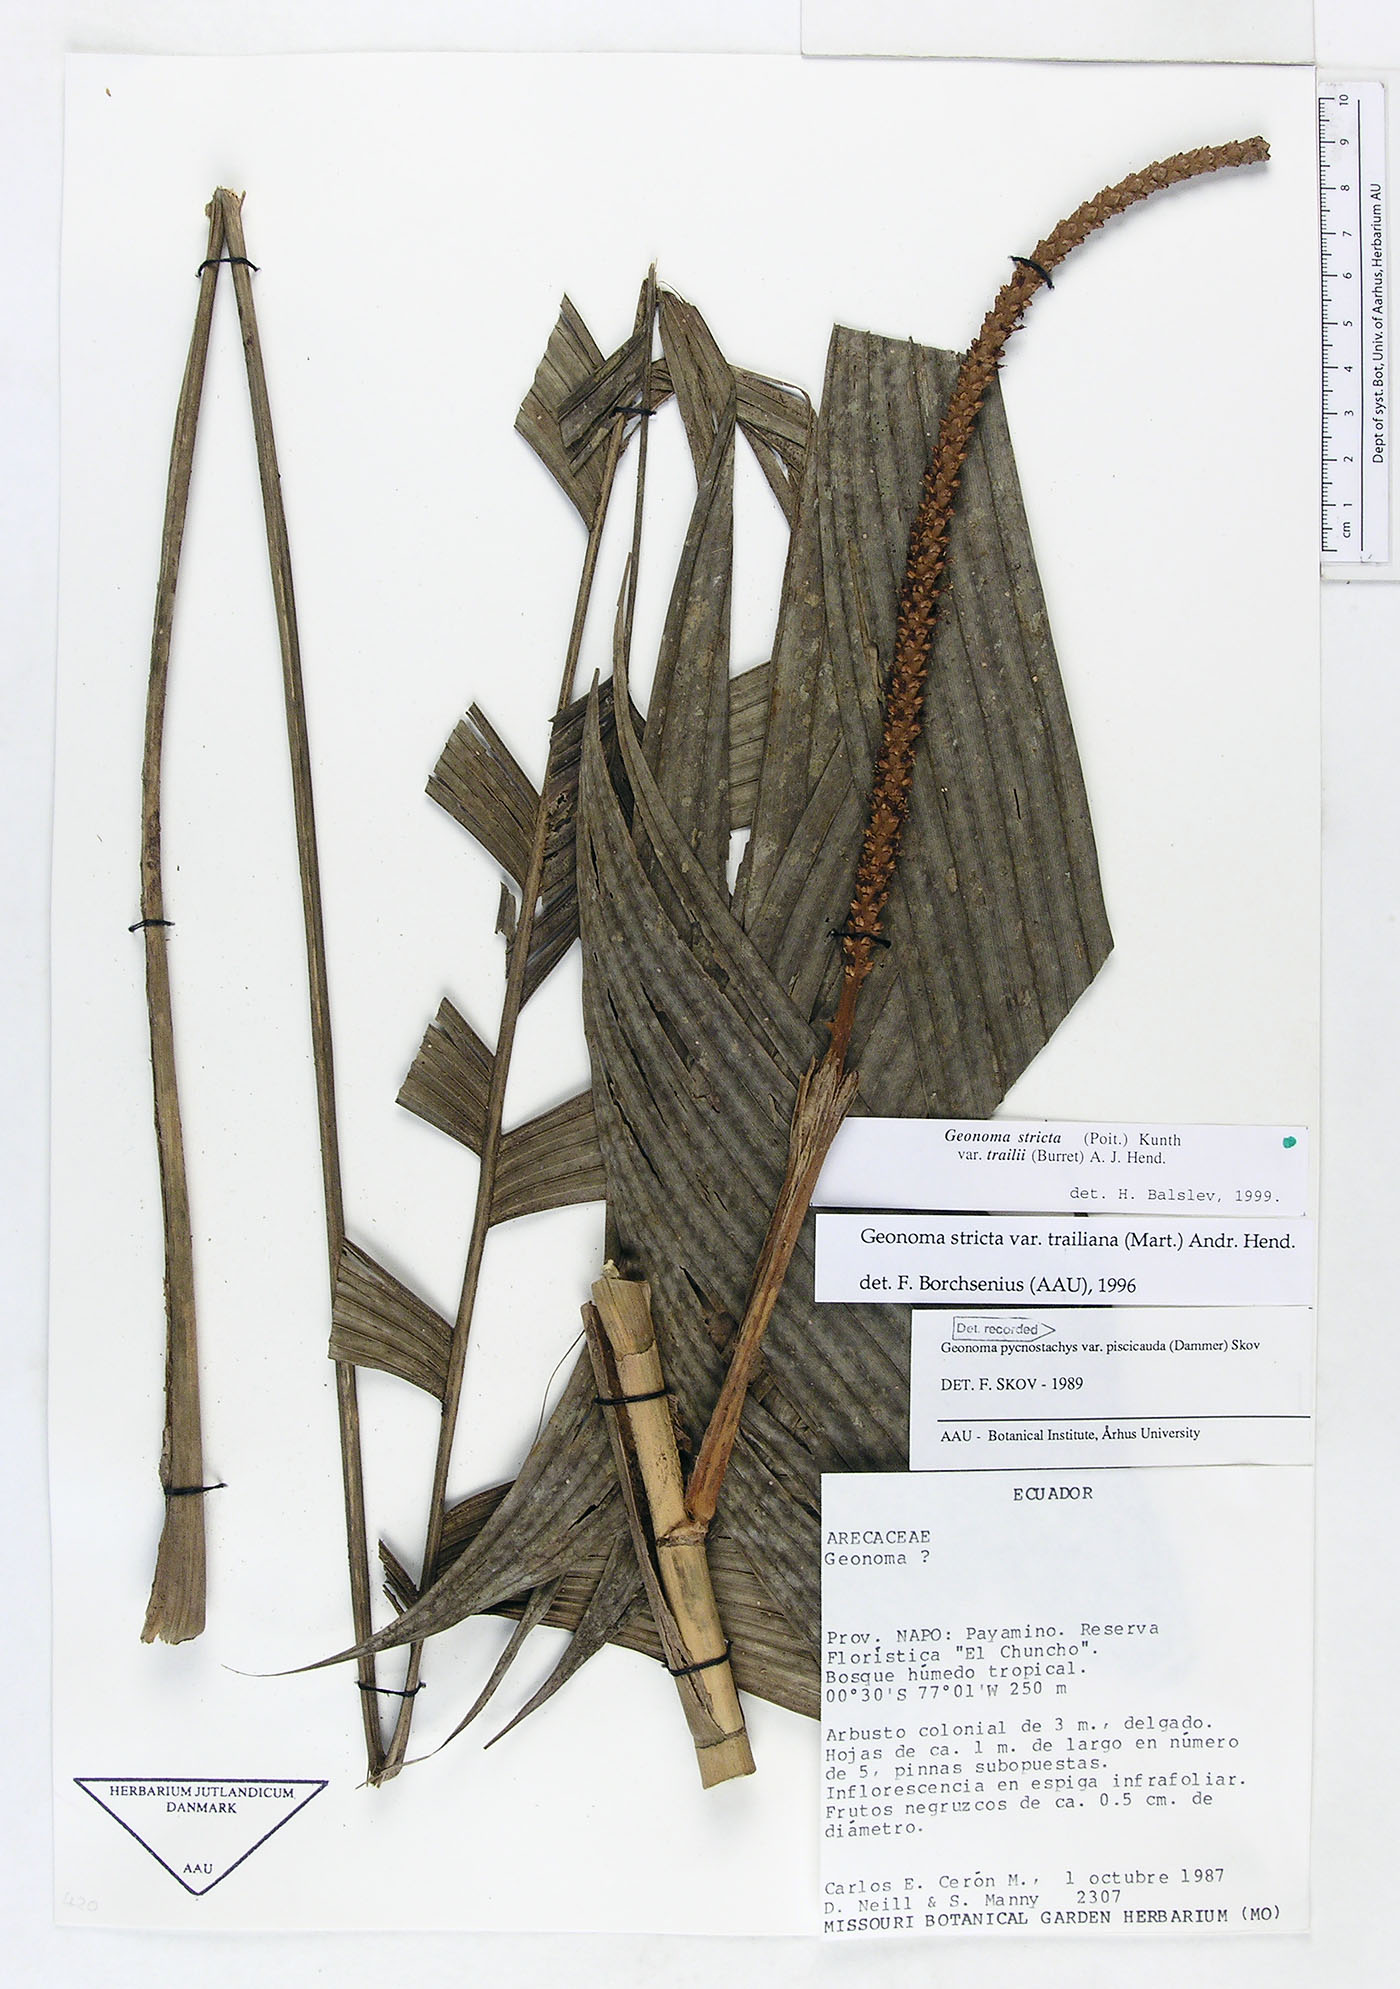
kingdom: Plantae
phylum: Tracheophyta
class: Liliopsida
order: Arecales
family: Arecaceae
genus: Geonoma
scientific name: Geonoma stricta
